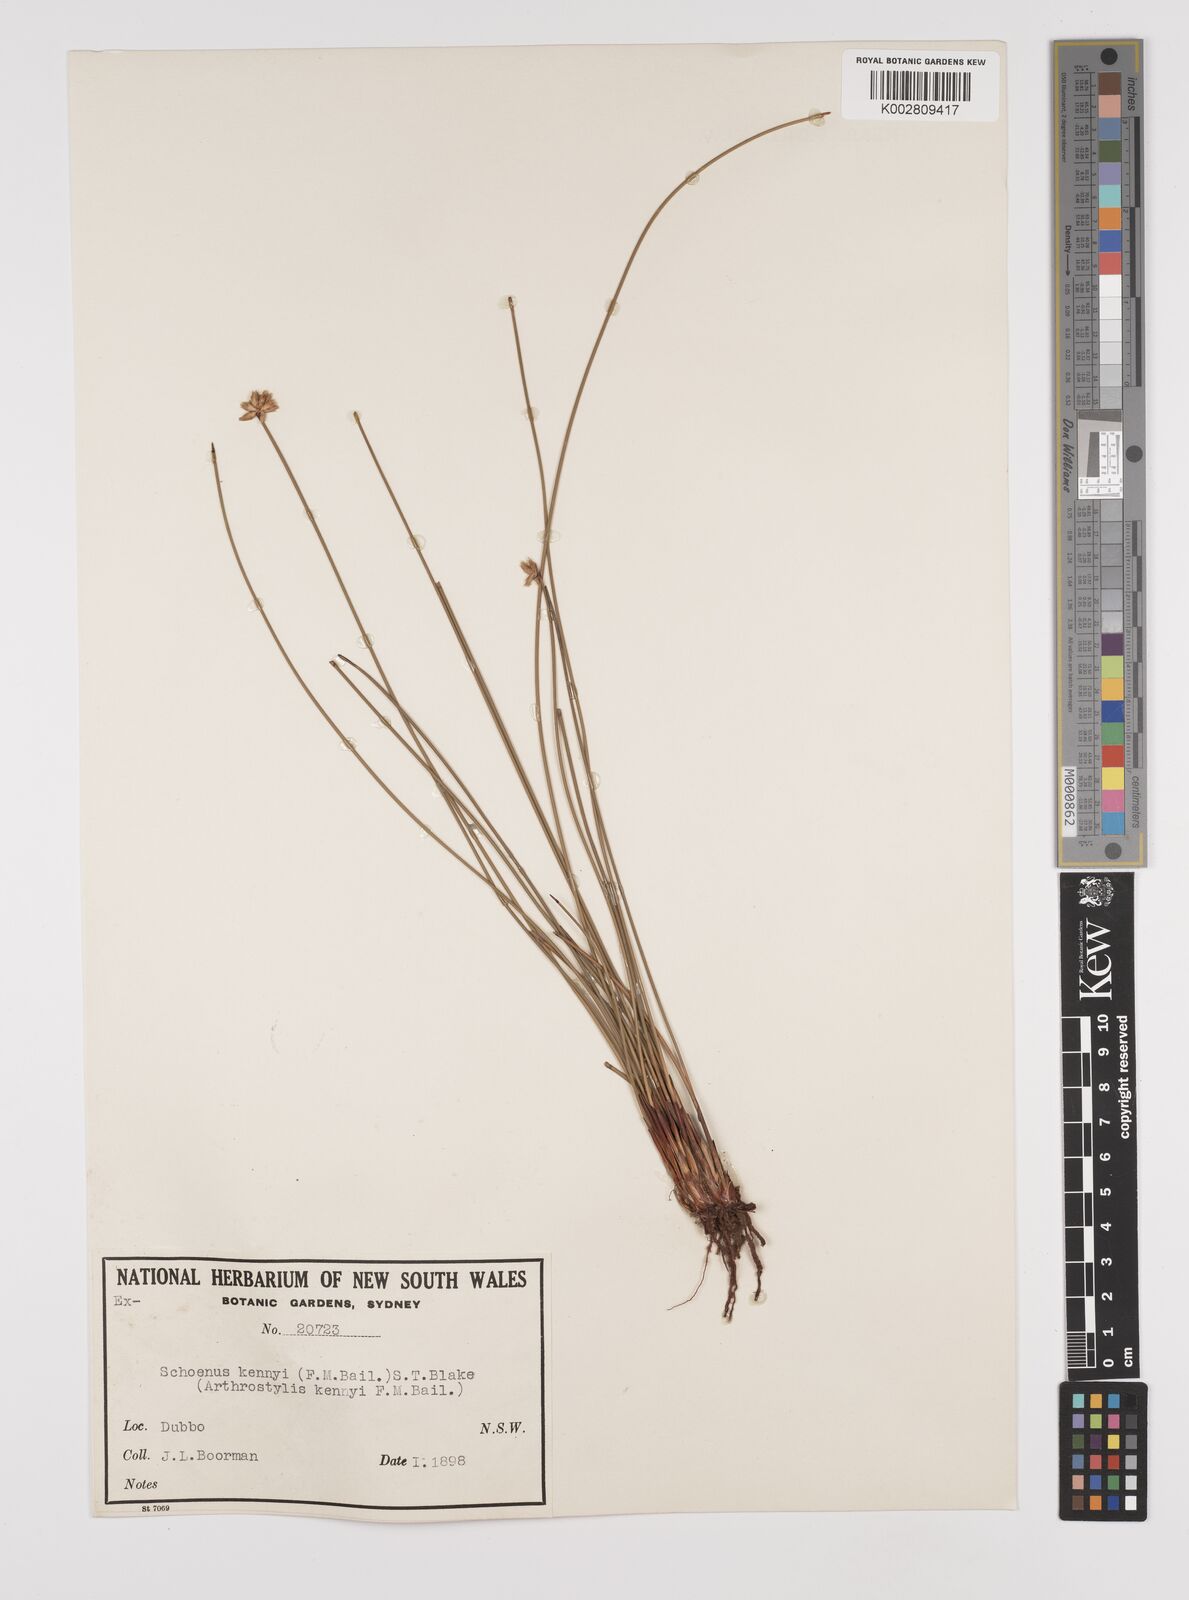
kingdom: Plantae
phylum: Tracheophyta
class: Liliopsida
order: Poales
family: Cyperaceae
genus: Schoenus
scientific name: Schoenus kennyi
